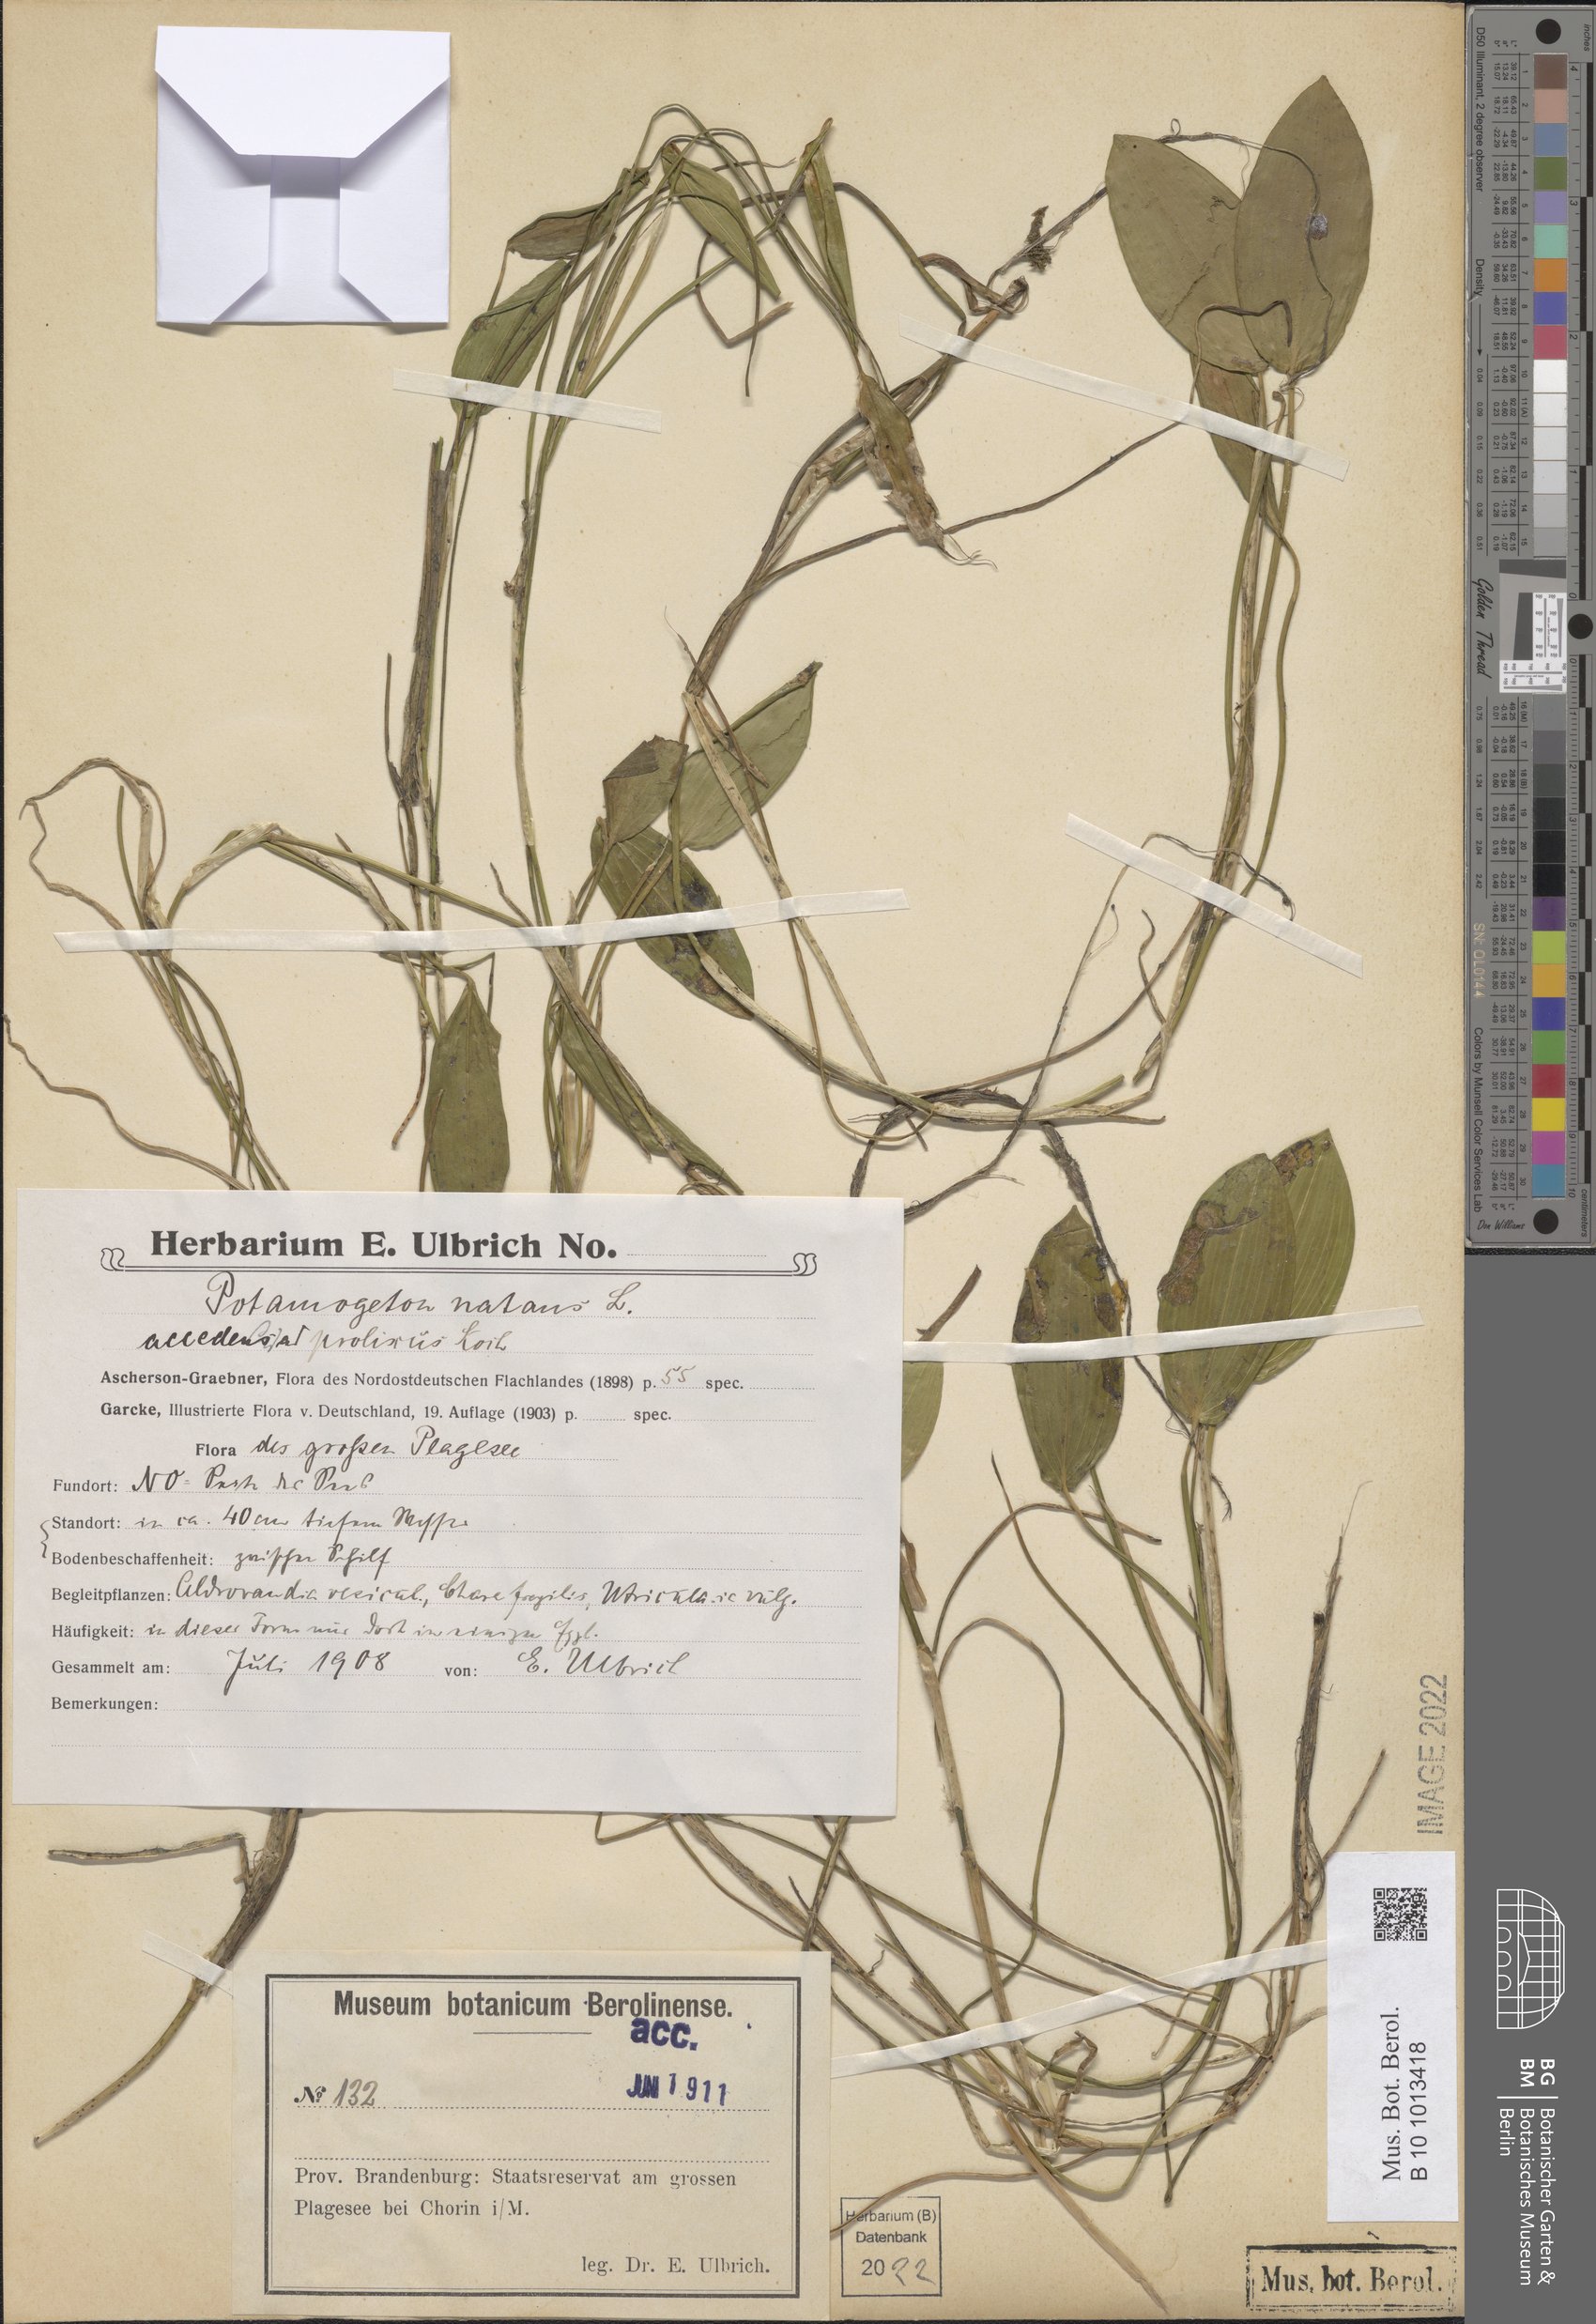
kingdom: Plantae
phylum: Tracheophyta
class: Liliopsida
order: Alismatales
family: Potamogetonaceae
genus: Potamogeton
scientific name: Potamogeton natans
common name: Broad-leaved pondweed
